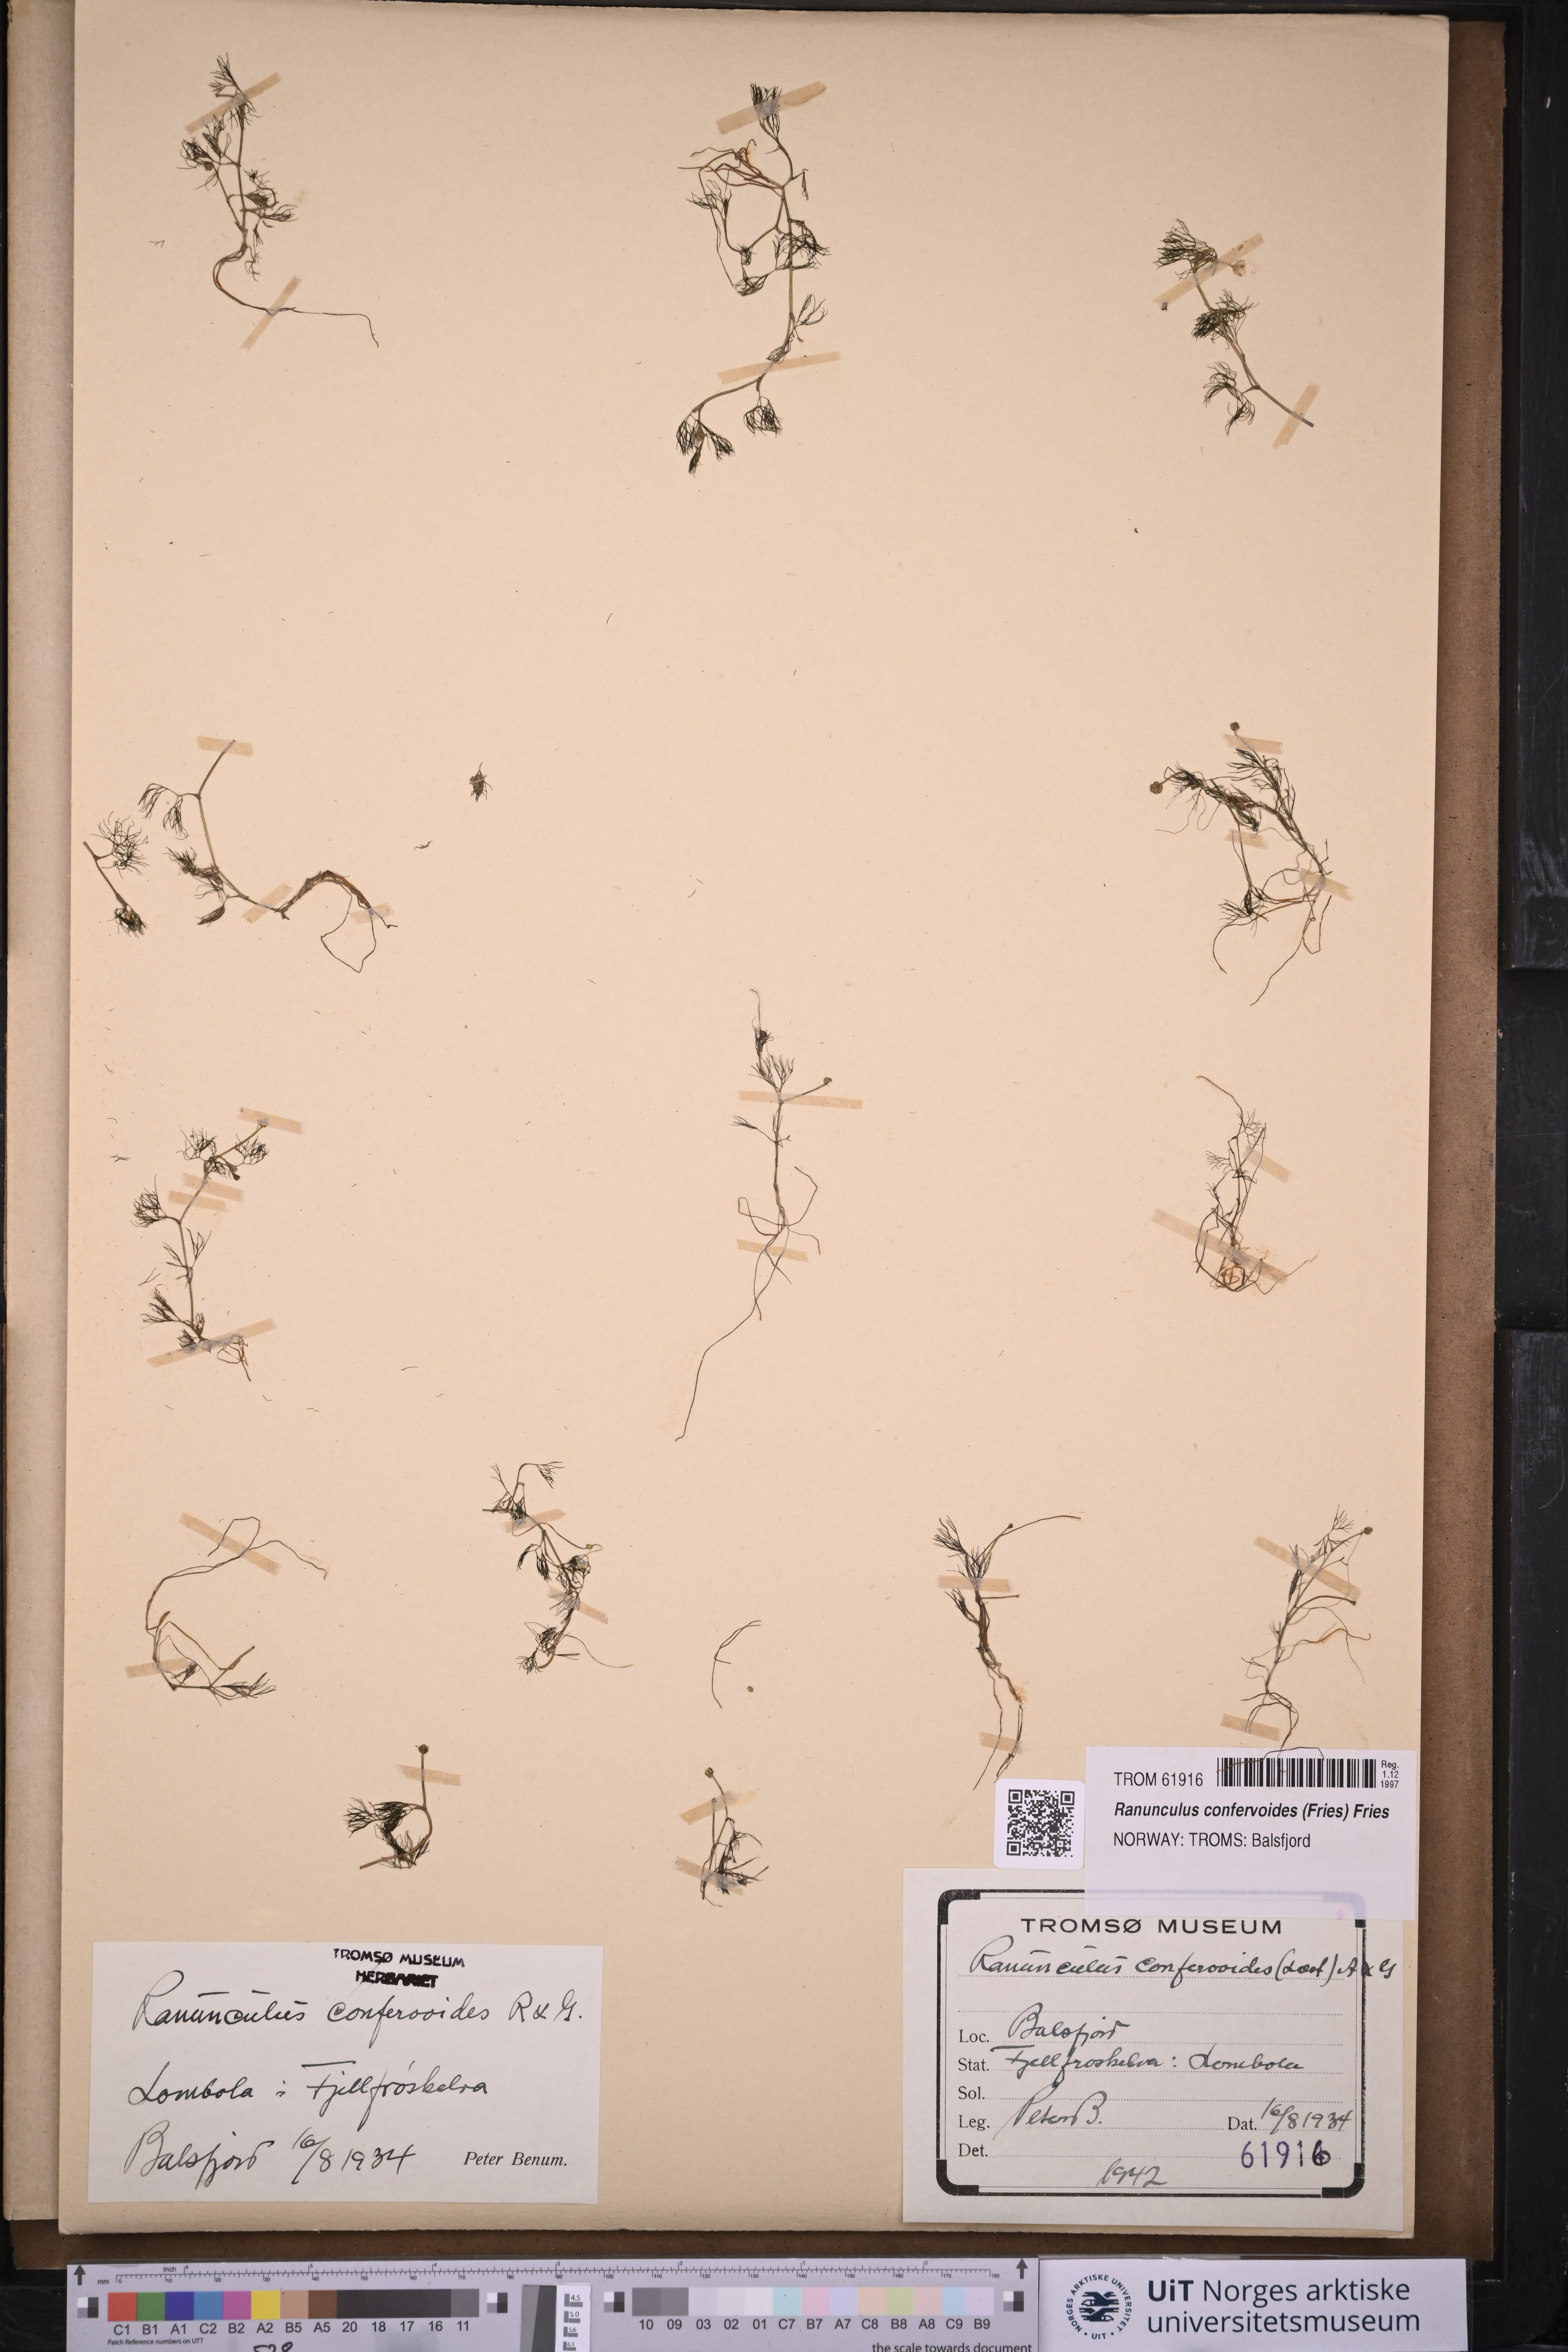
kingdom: Plantae
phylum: Tracheophyta
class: Magnoliopsida
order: Ranunculales
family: Ranunculaceae
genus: Ranunculus
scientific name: Ranunculus confervoides
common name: Delicate buttercup
